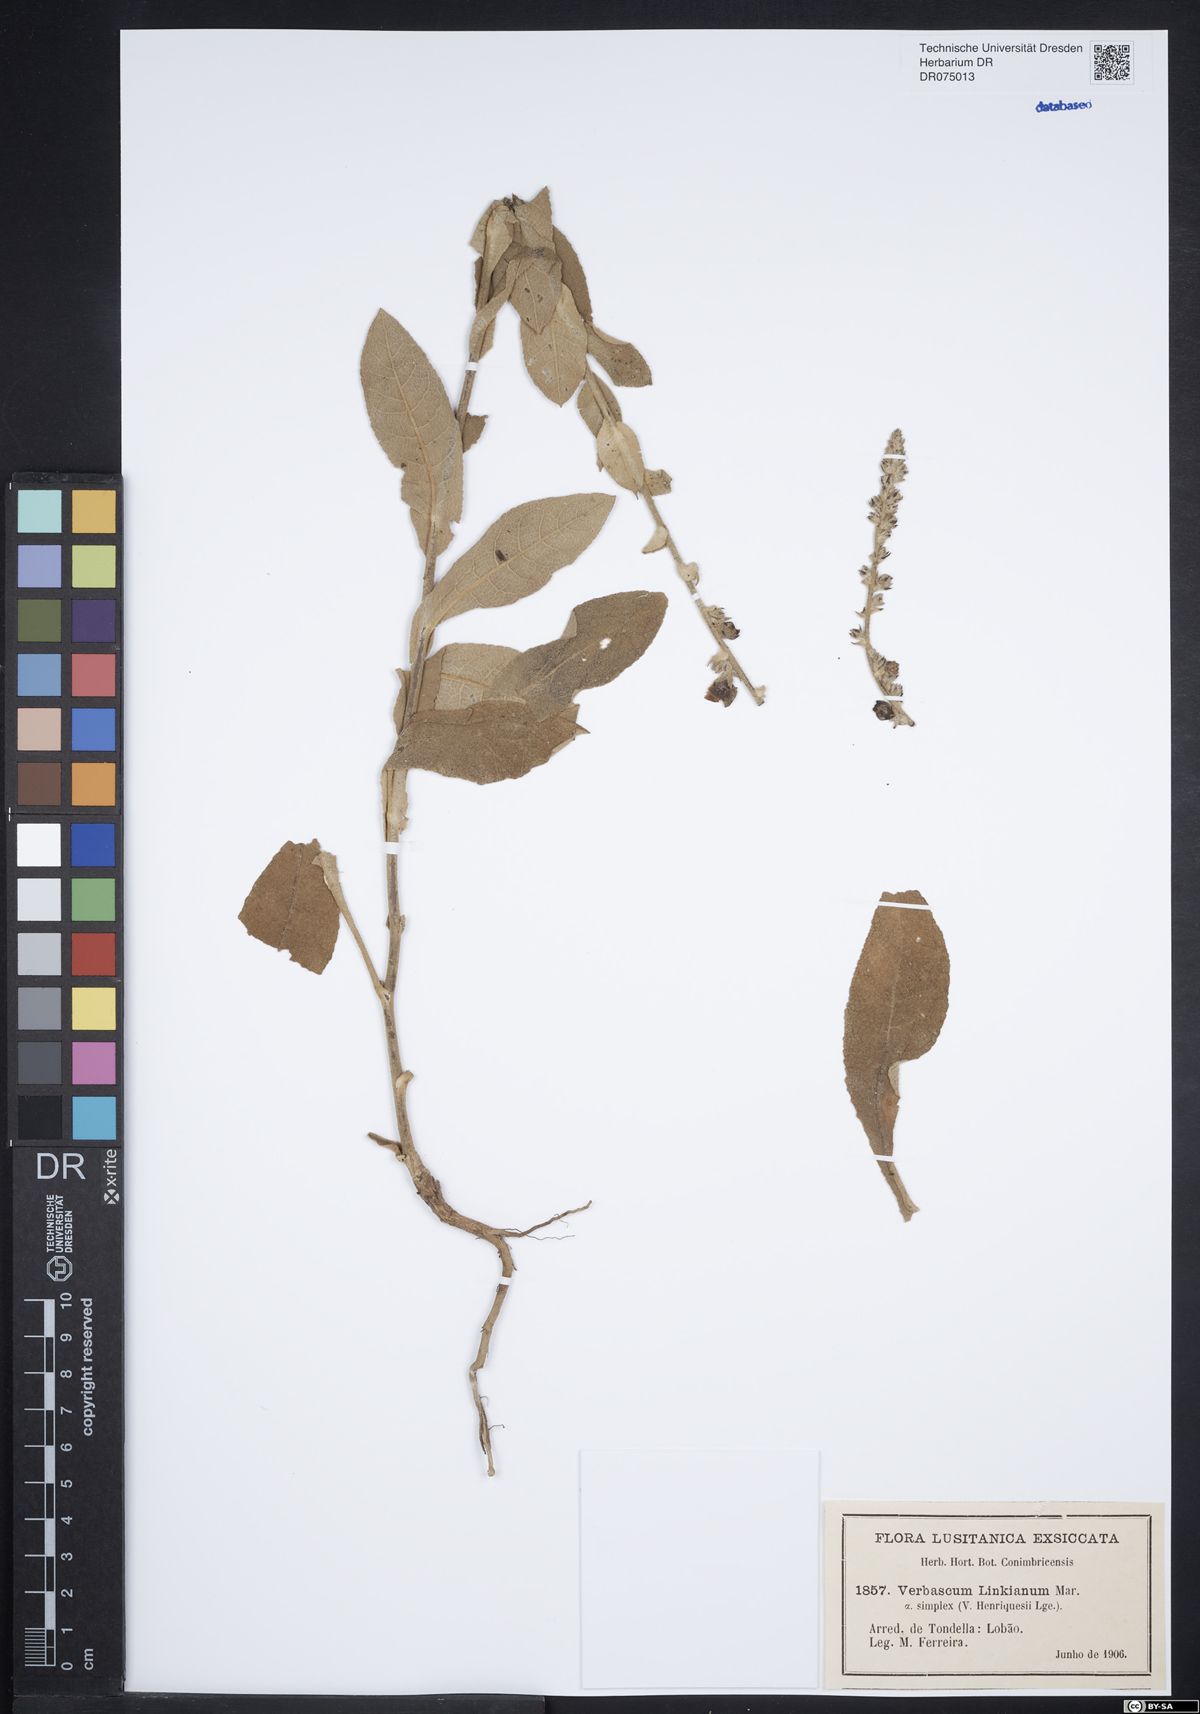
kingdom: Plantae
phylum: Tracheophyta
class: Magnoliopsida
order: Lamiales
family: Scrophulariaceae
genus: Verbascum
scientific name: Verbascum simplex
